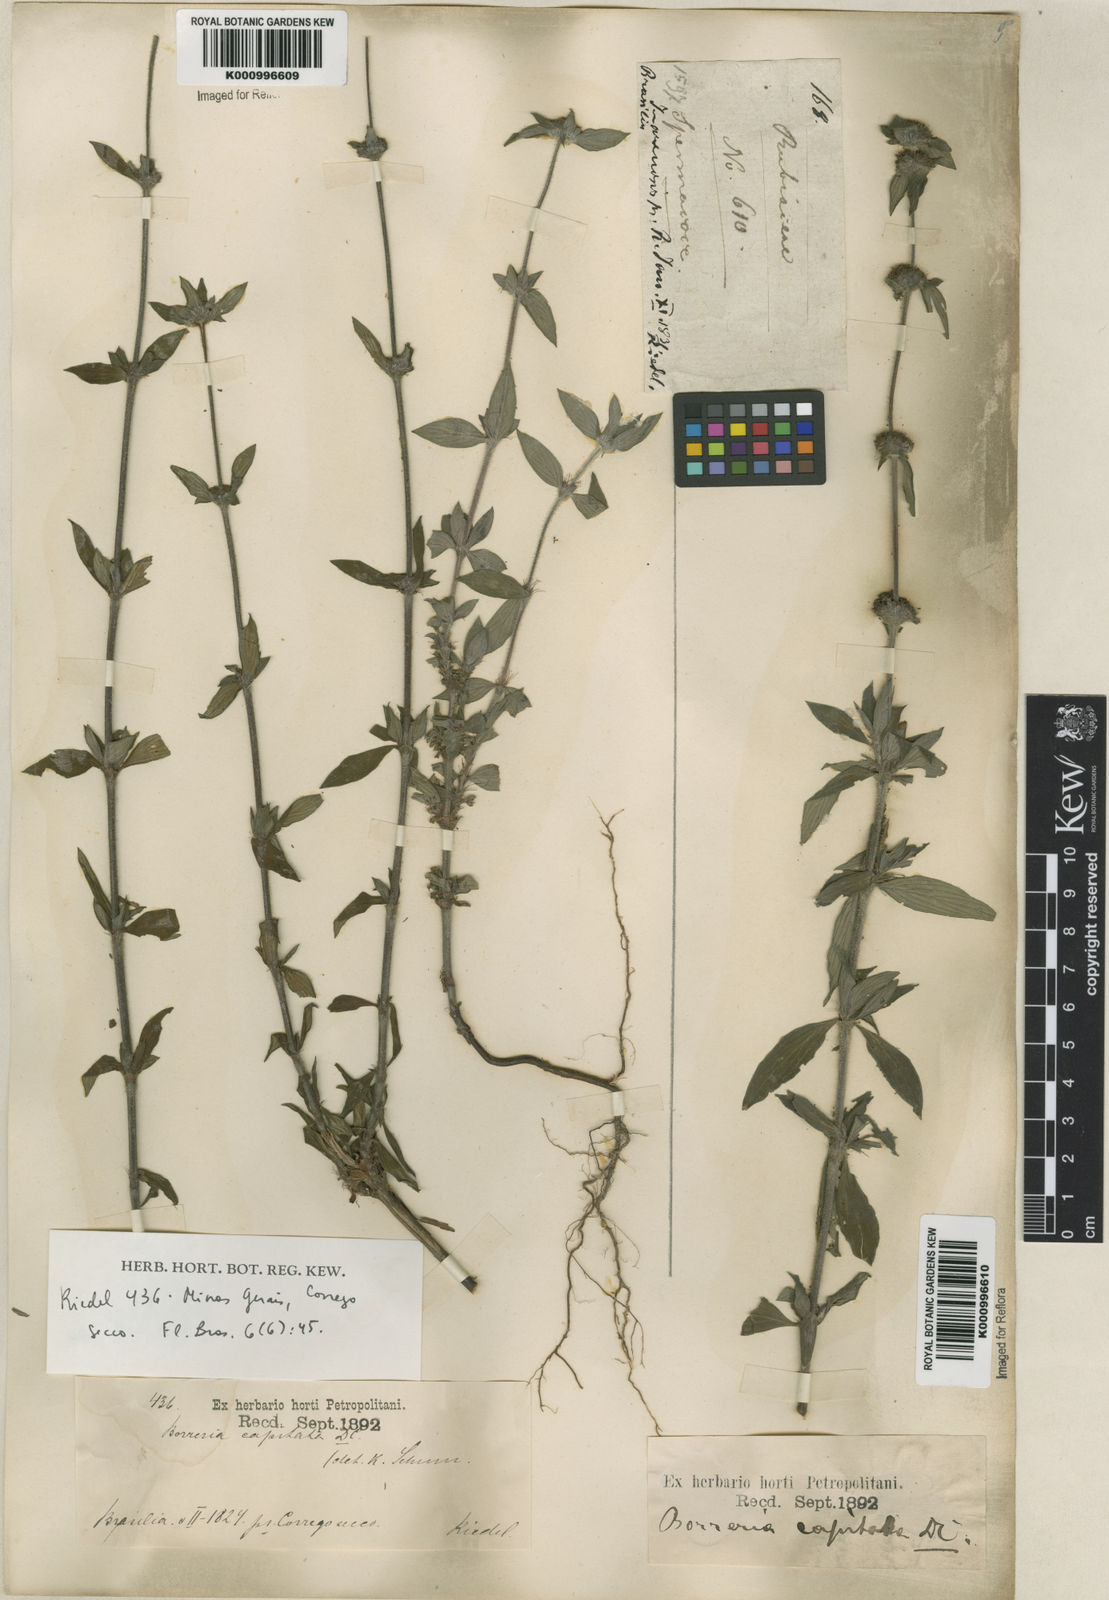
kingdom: Plantae
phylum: Tracheophyta
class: Magnoliopsida
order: Gentianales
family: Rubiaceae
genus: Spermacoce
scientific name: Spermacoce
